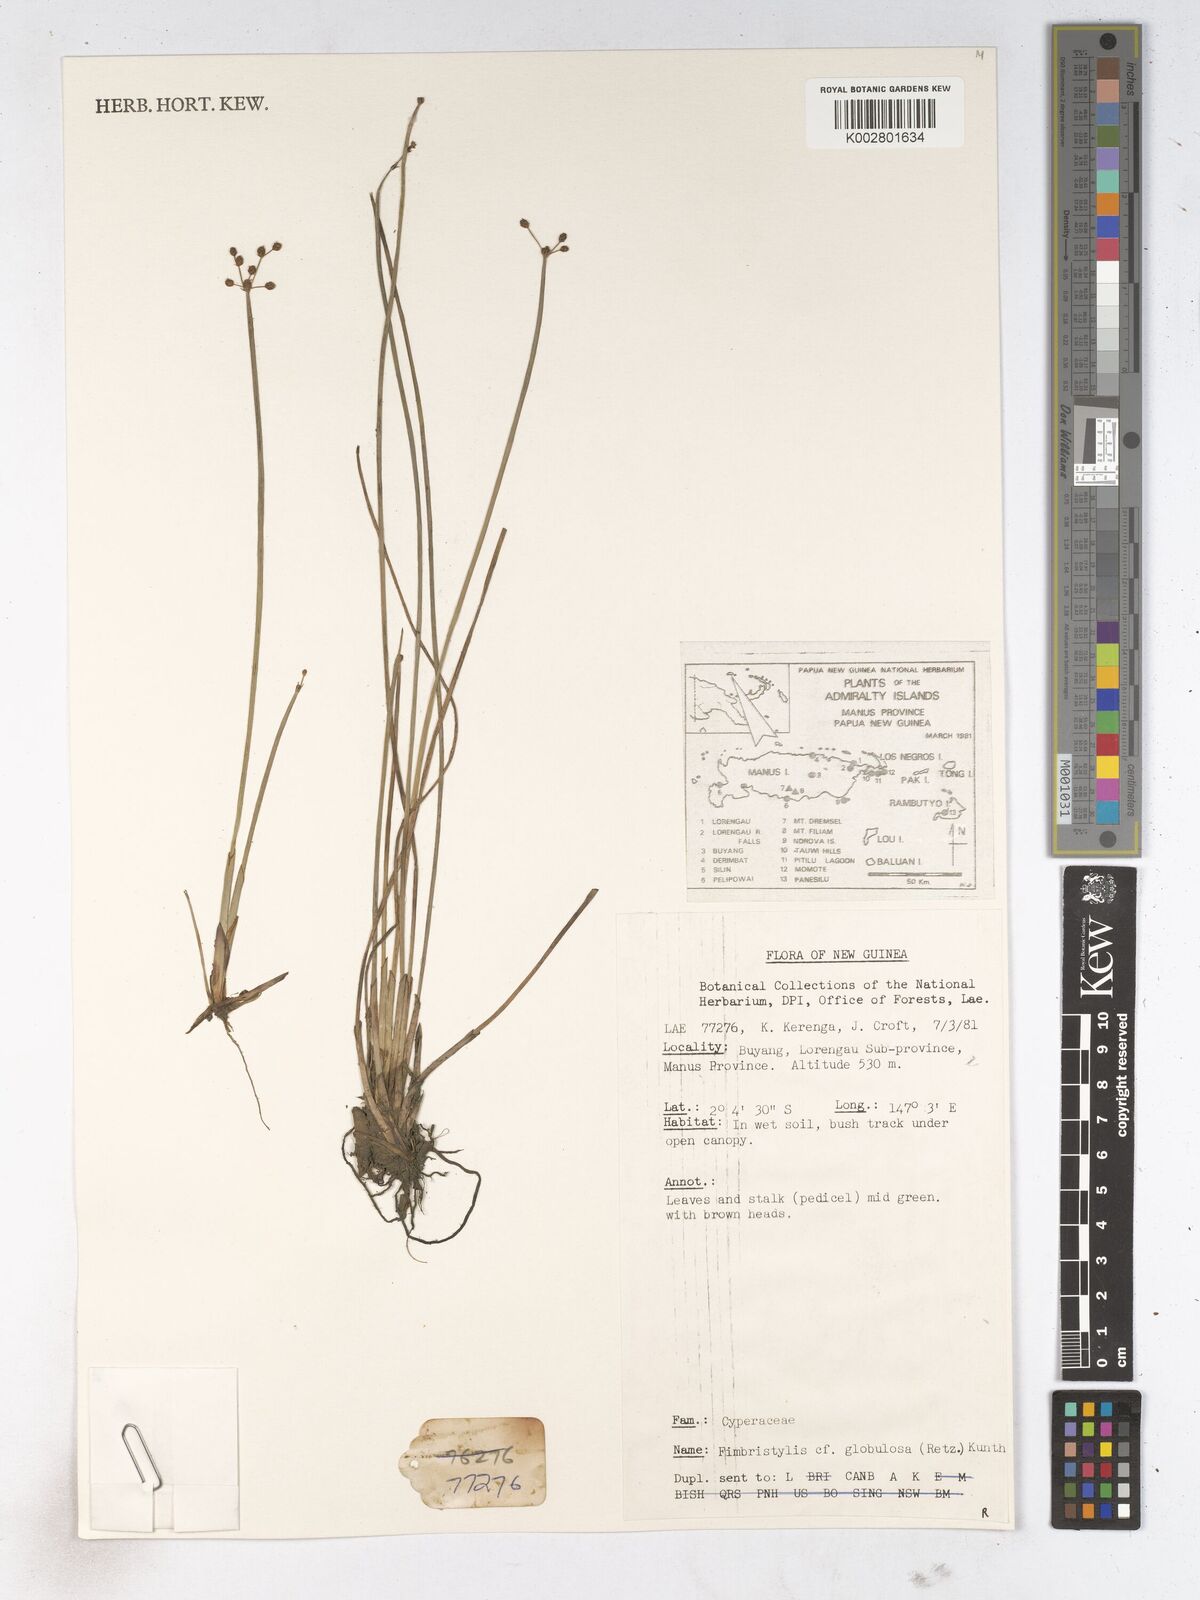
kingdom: Plantae
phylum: Tracheophyta
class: Liliopsida
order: Poales
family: Cyperaceae
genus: Fimbristylis
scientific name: Fimbristylis umbellaris
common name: Globular fimbristylis
